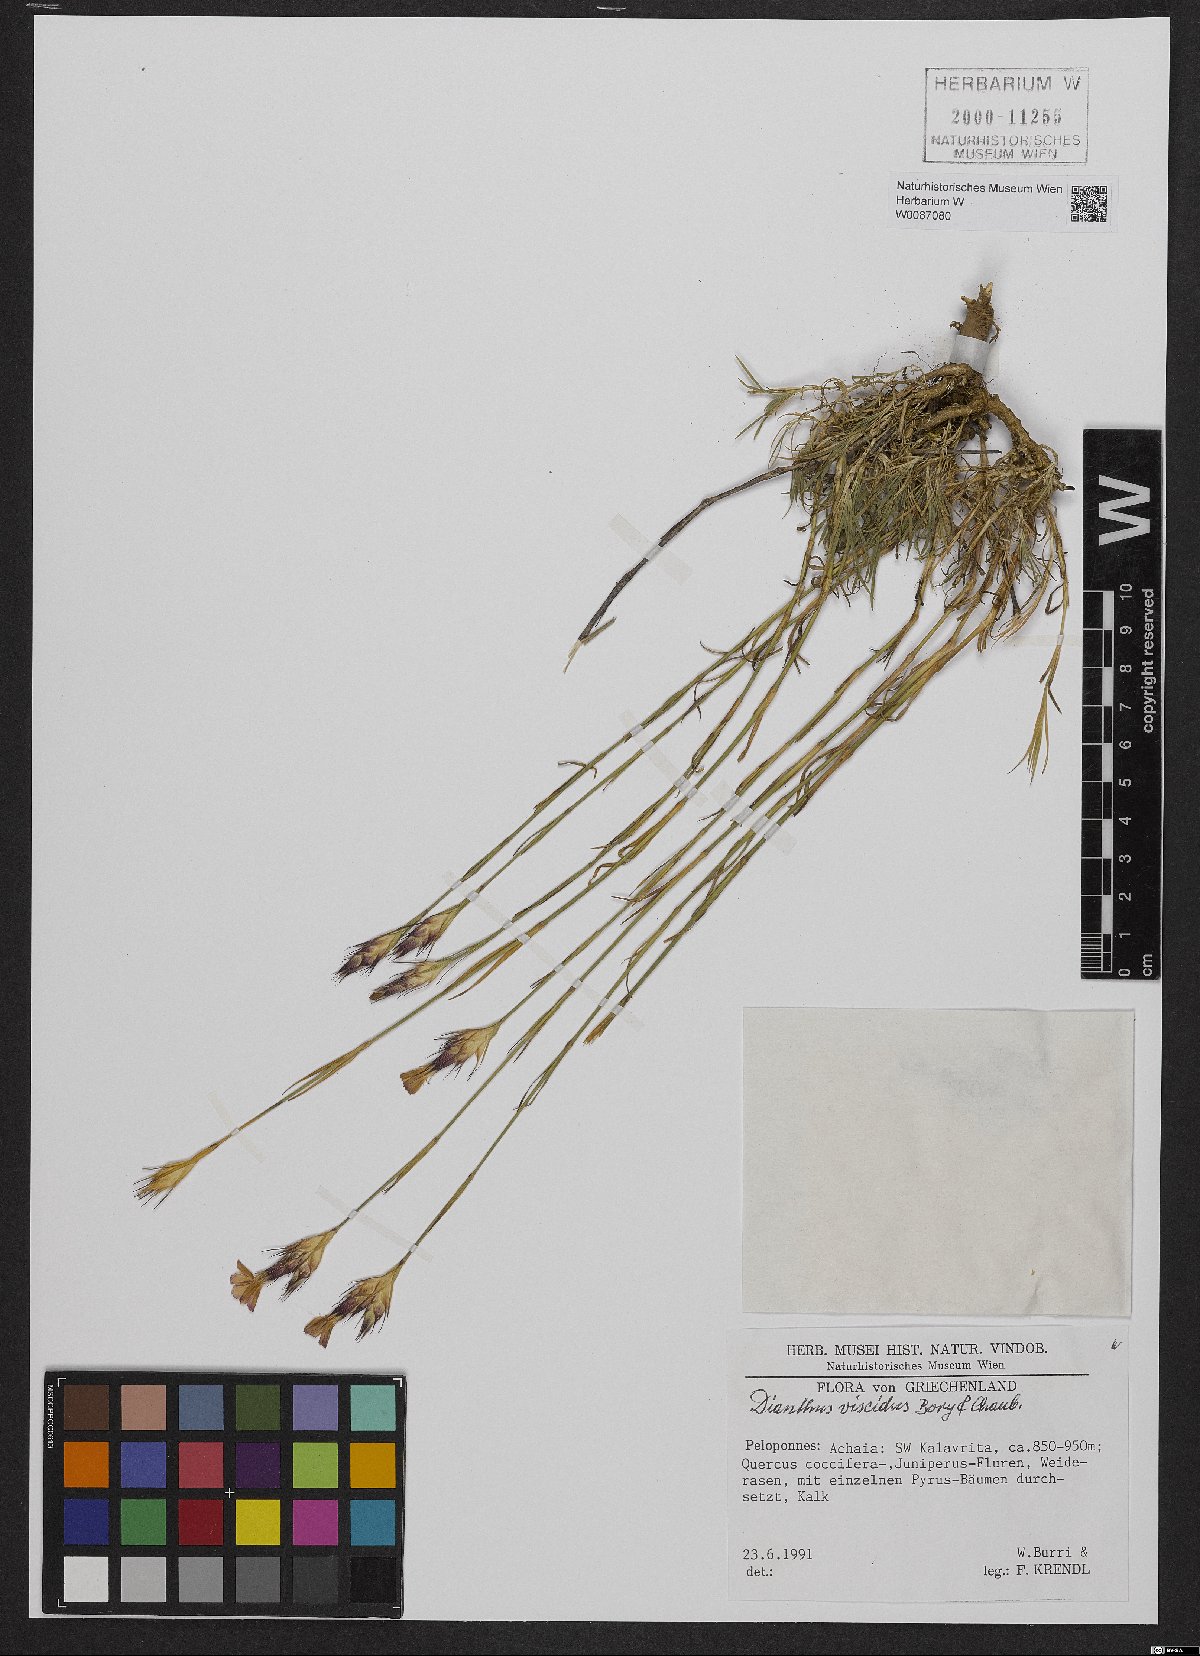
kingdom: Plantae
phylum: Tracheophyta
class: Magnoliopsida
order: Caryophyllales
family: Caryophyllaceae
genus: Dianthus
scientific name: Dianthus viscidus
